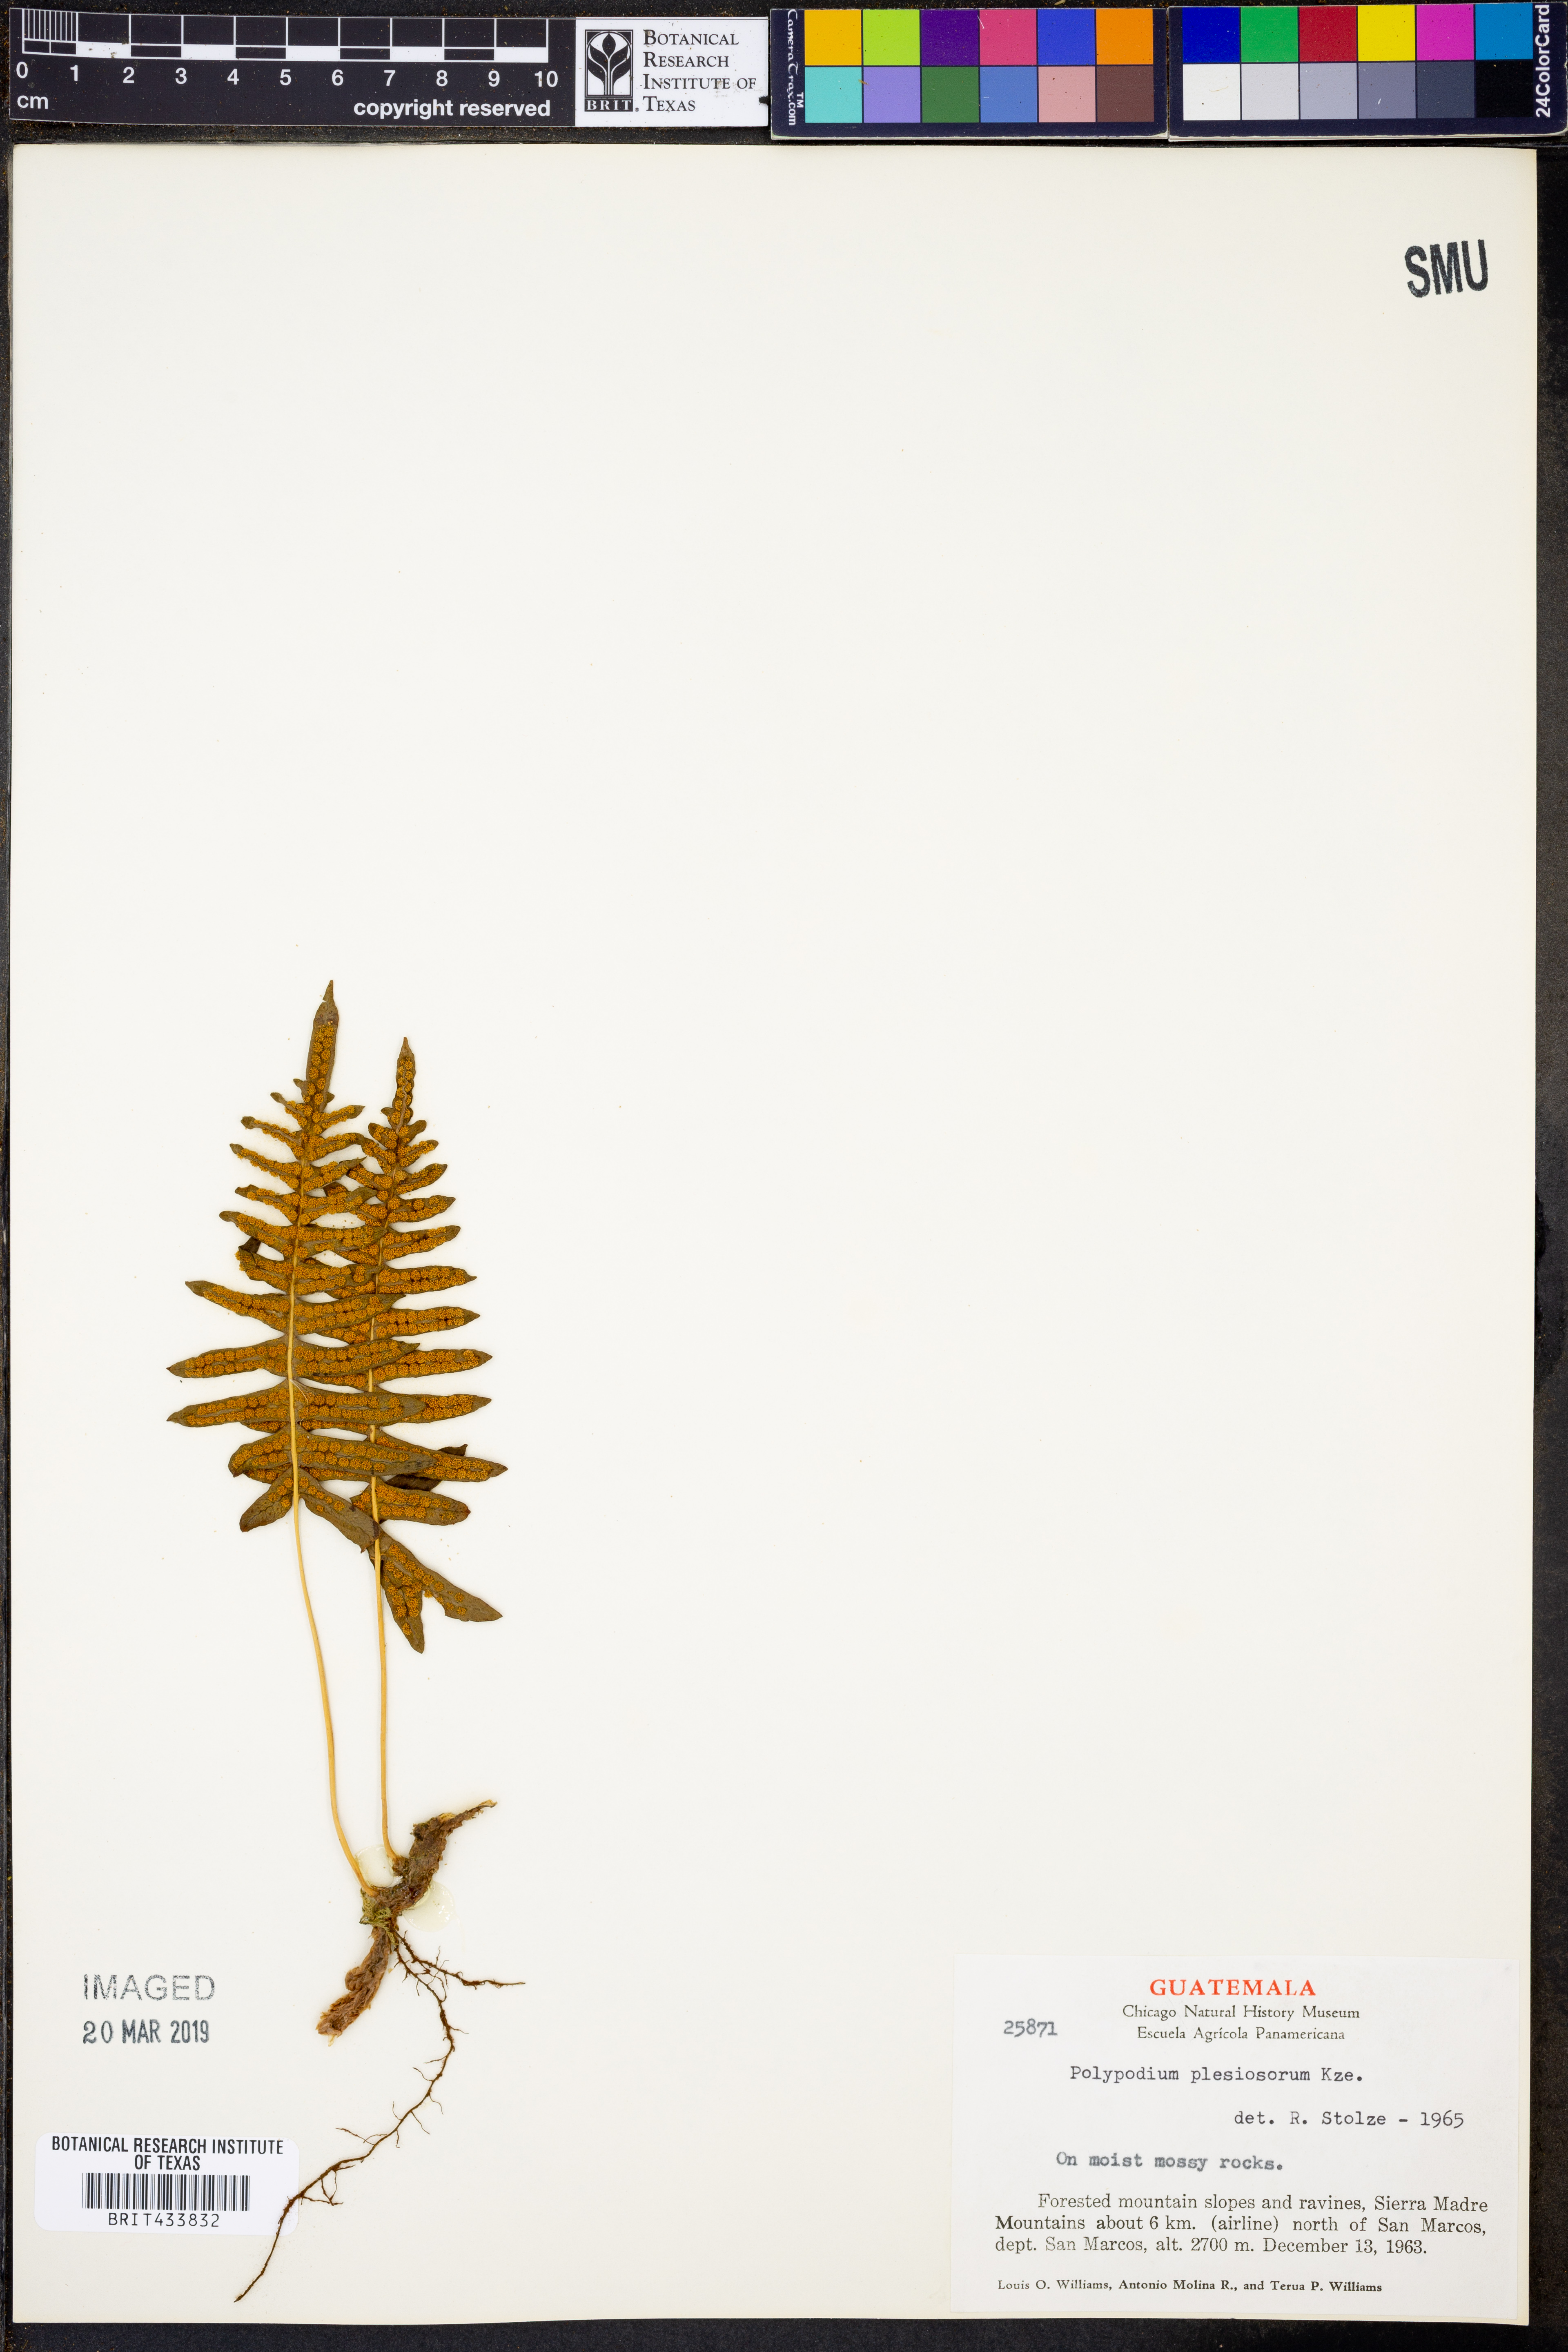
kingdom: Plantae
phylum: Tracheophyta
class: Polypodiopsida
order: Polypodiales
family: Polypodiaceae
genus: Polypodium
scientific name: Polypodium plesiosorum
